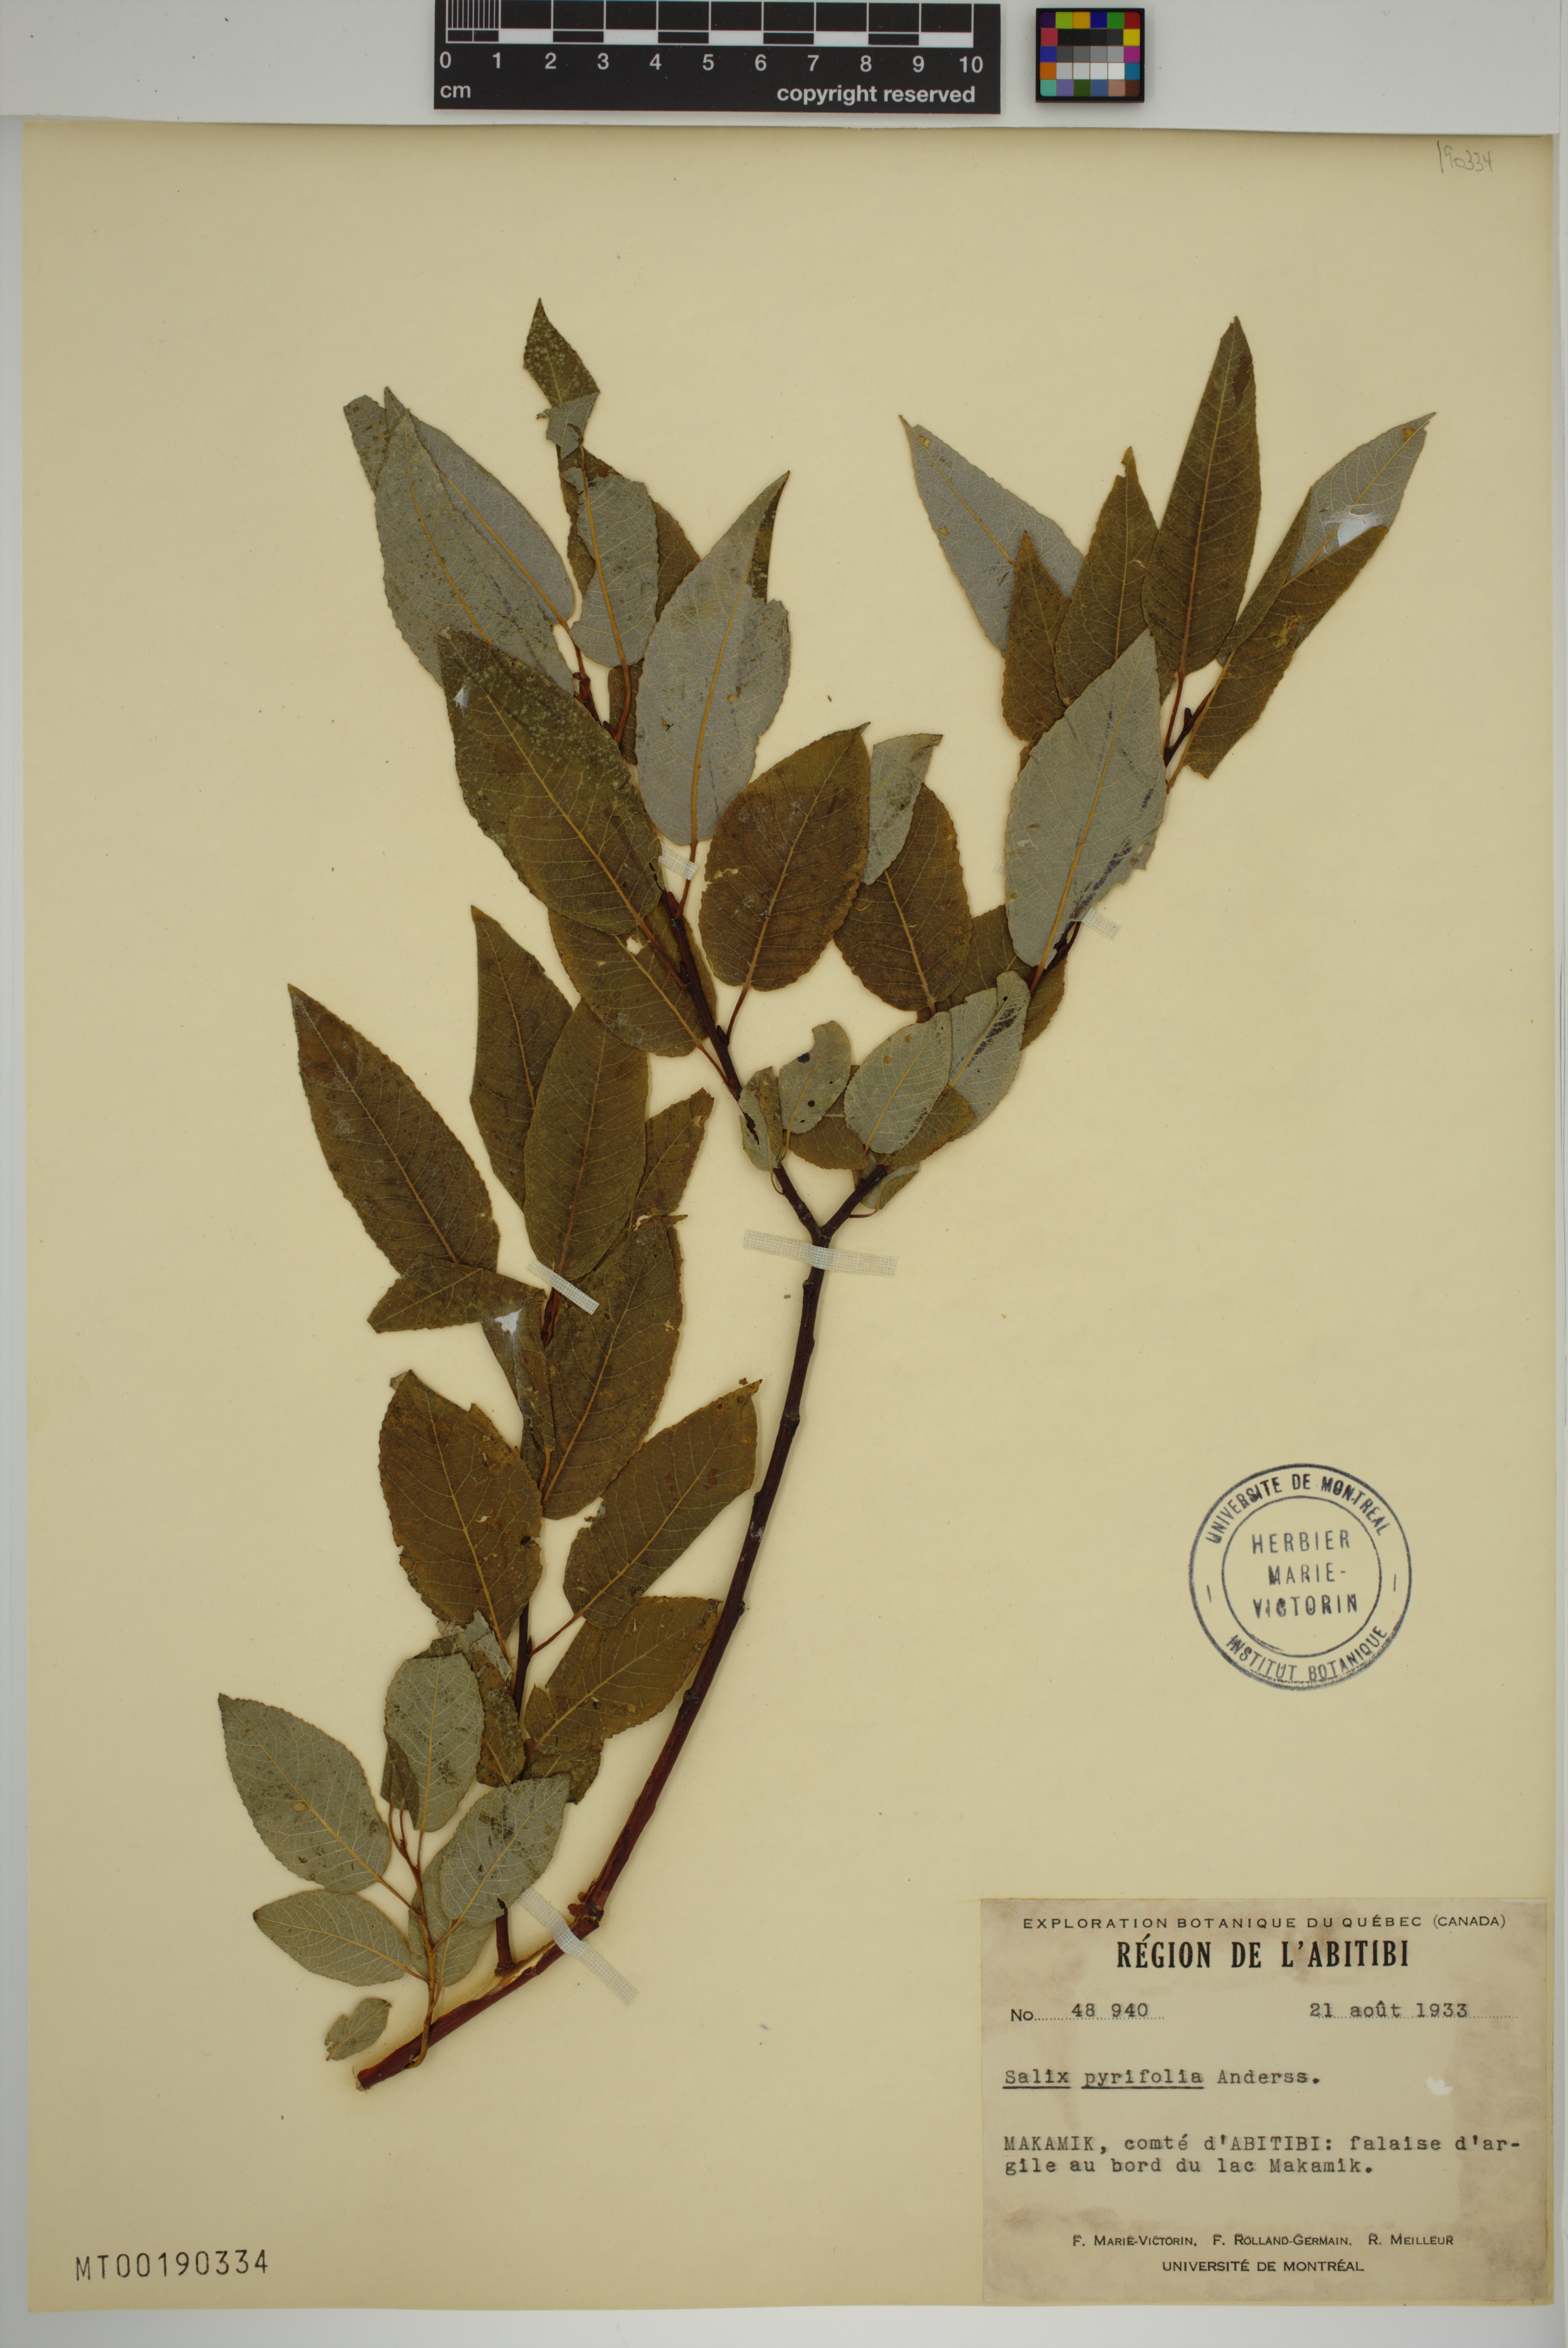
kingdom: Plantae
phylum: Tracheophyta
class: Magnoliopsida
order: Malpighiales
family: Salicaceae
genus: Salix
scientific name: Salix pyrifolia
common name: Balsam willow
